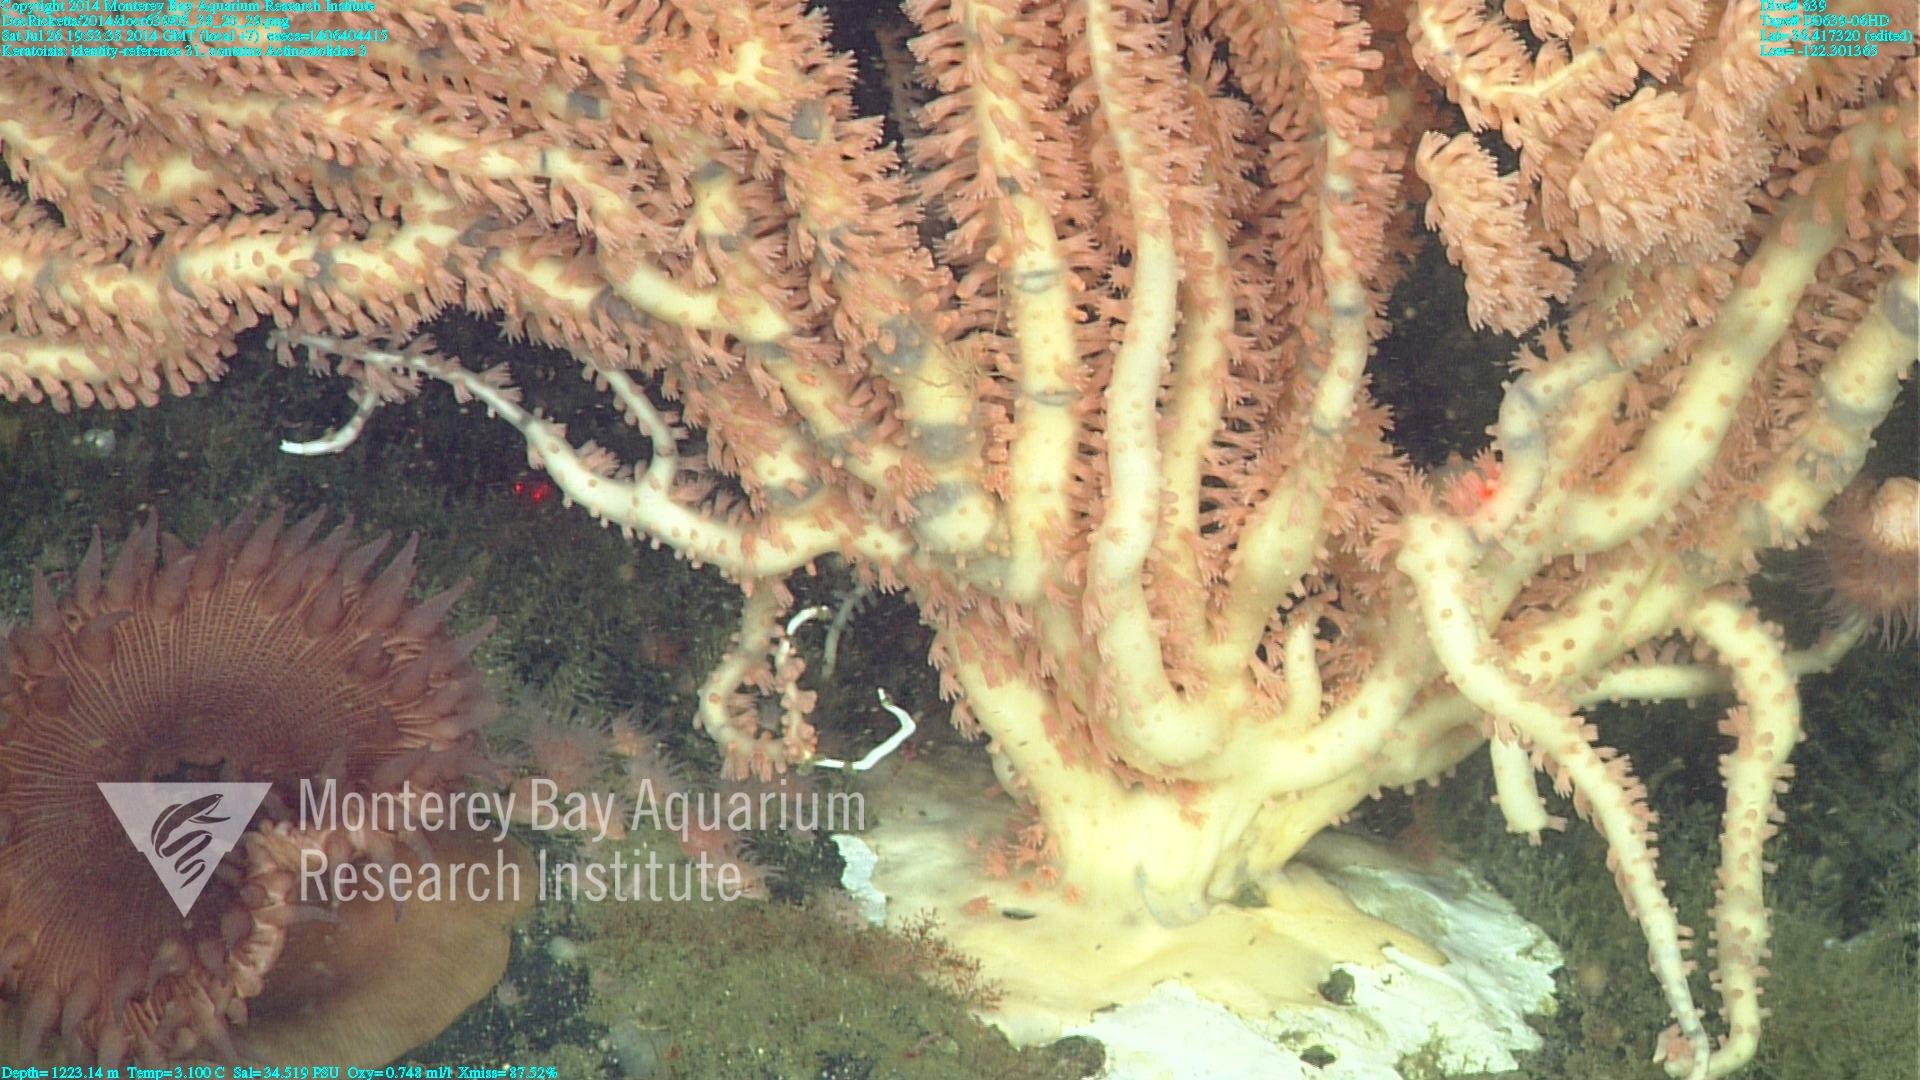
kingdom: Animalia
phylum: Cnidaria
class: Anthozoa
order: Scleralcyonacea
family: Keratoisididae
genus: Keratoisis
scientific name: Keratoisis
